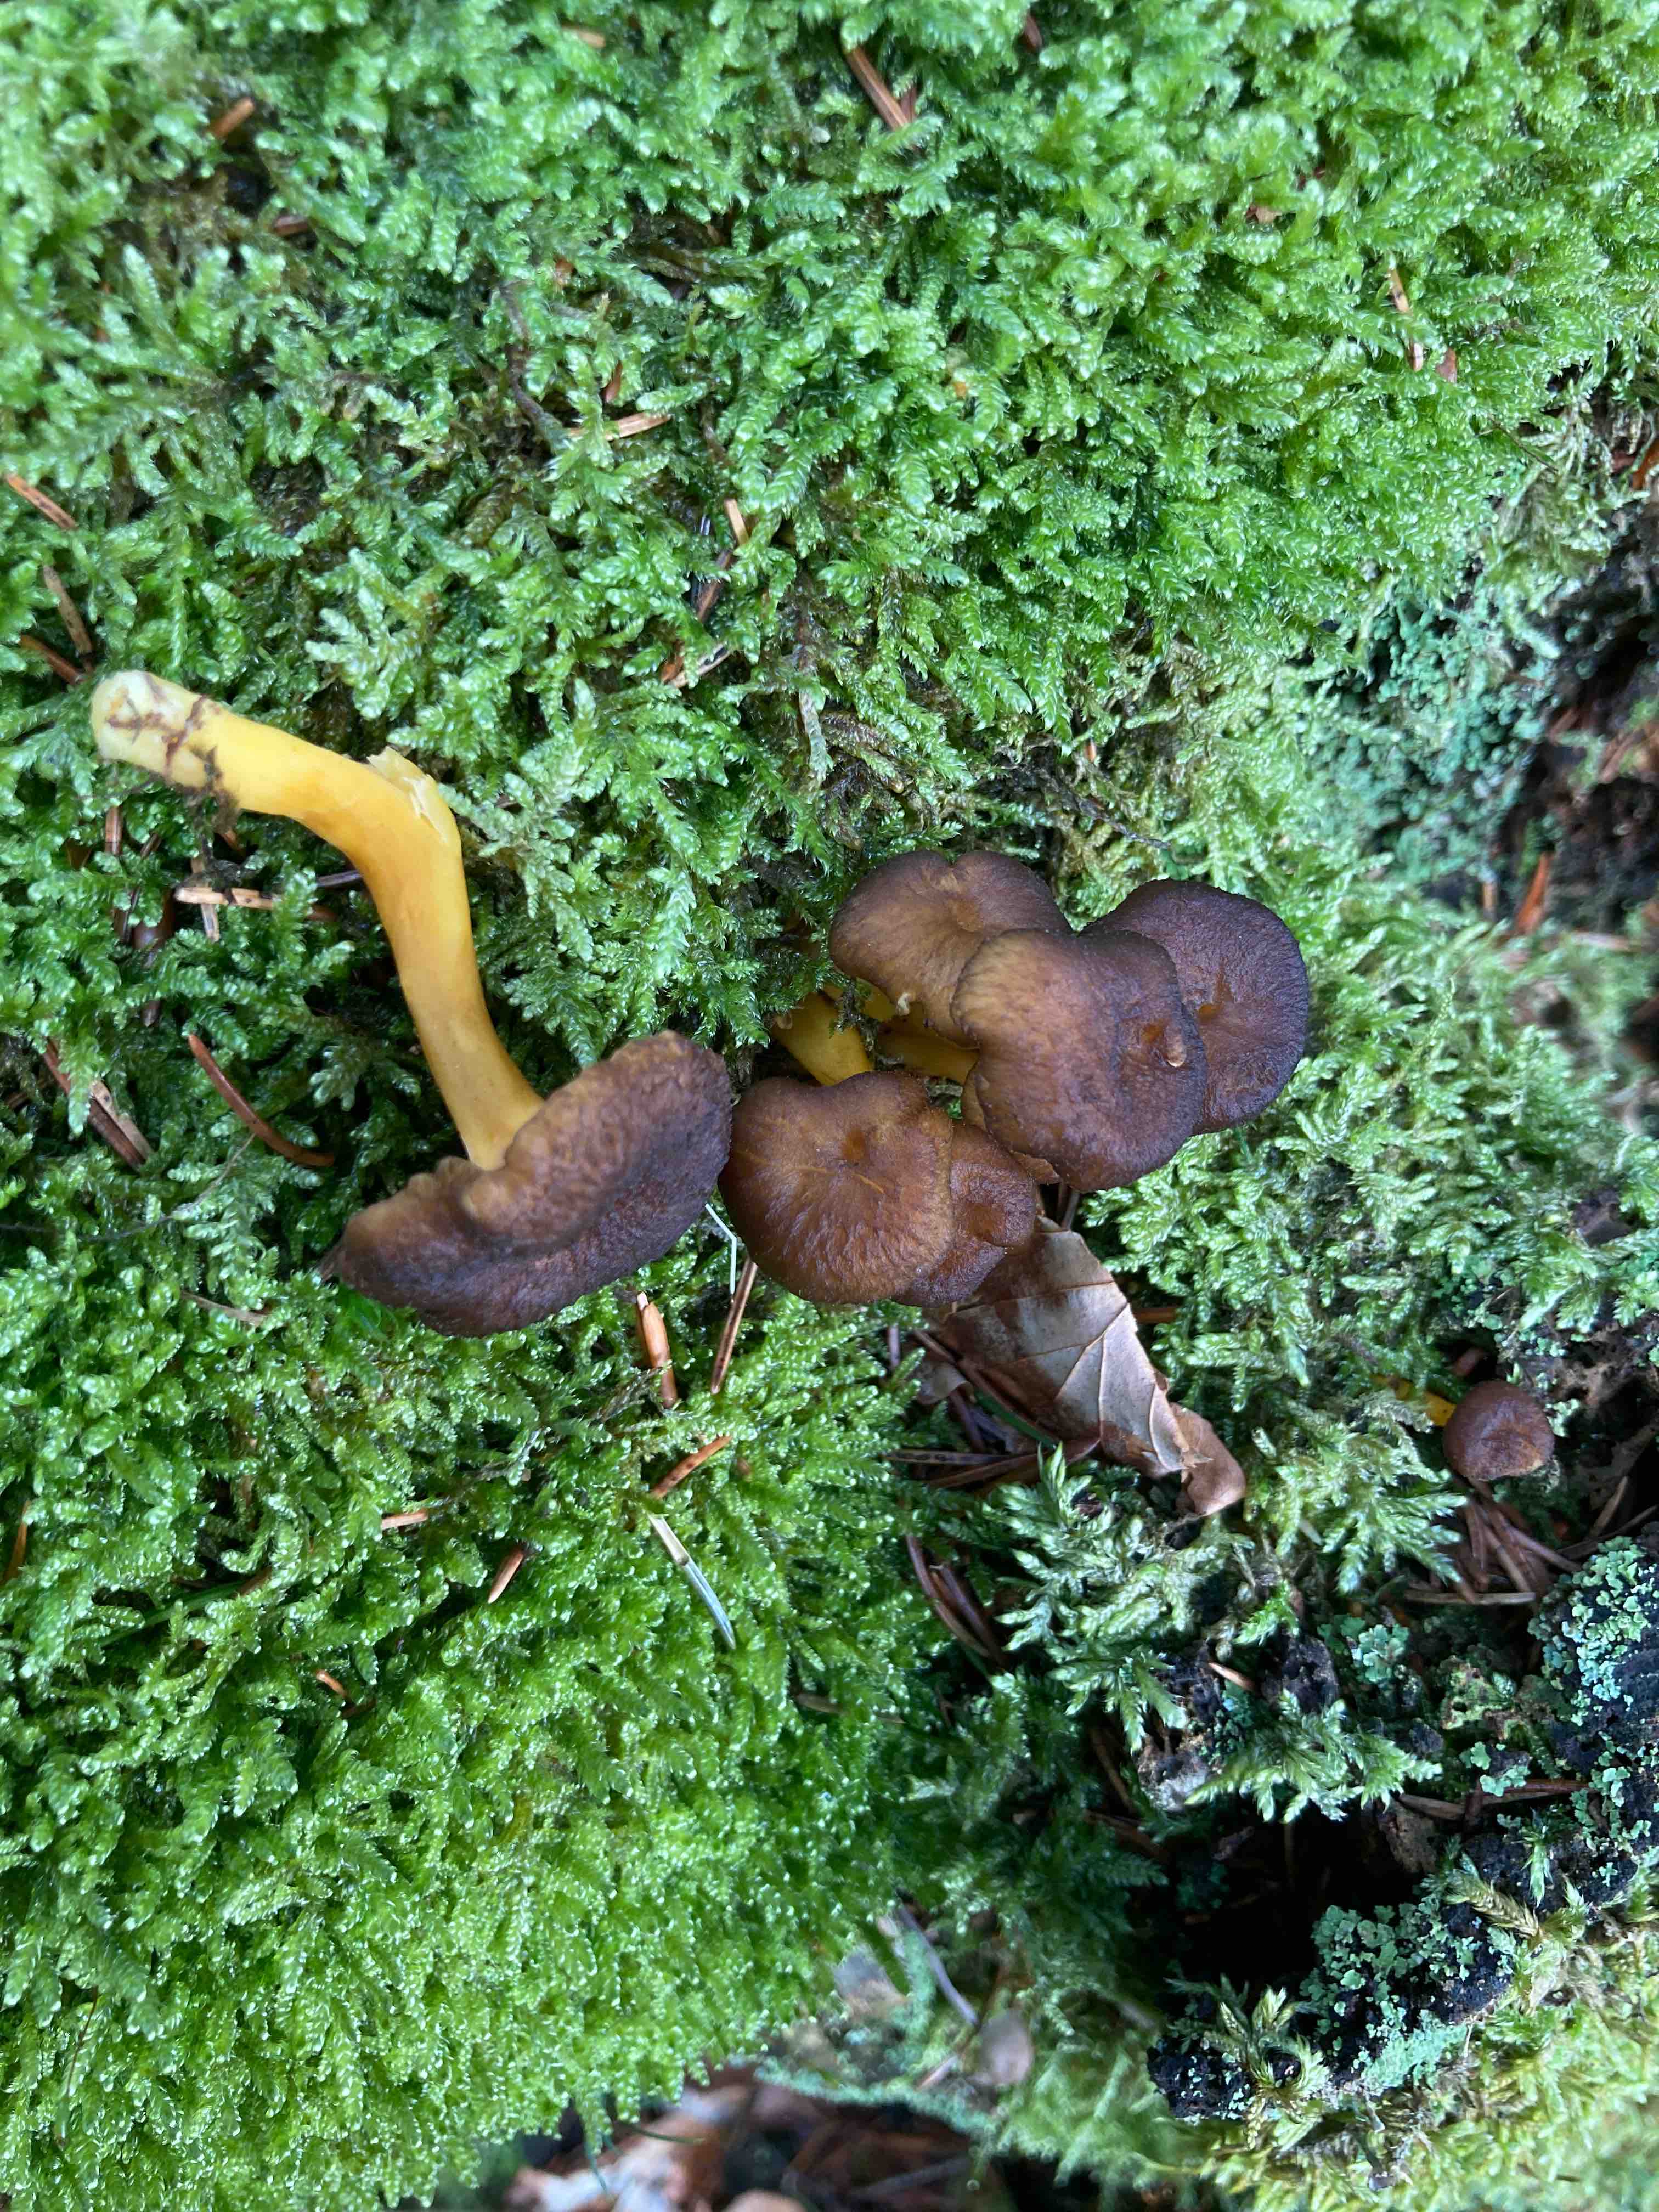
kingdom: Fungi
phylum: Basidiomycota
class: Agaricomycetes
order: Cantharellales
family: Hydnaceae
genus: Craterellus
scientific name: Craterellus tubaeformis
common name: tragt-kantarel
